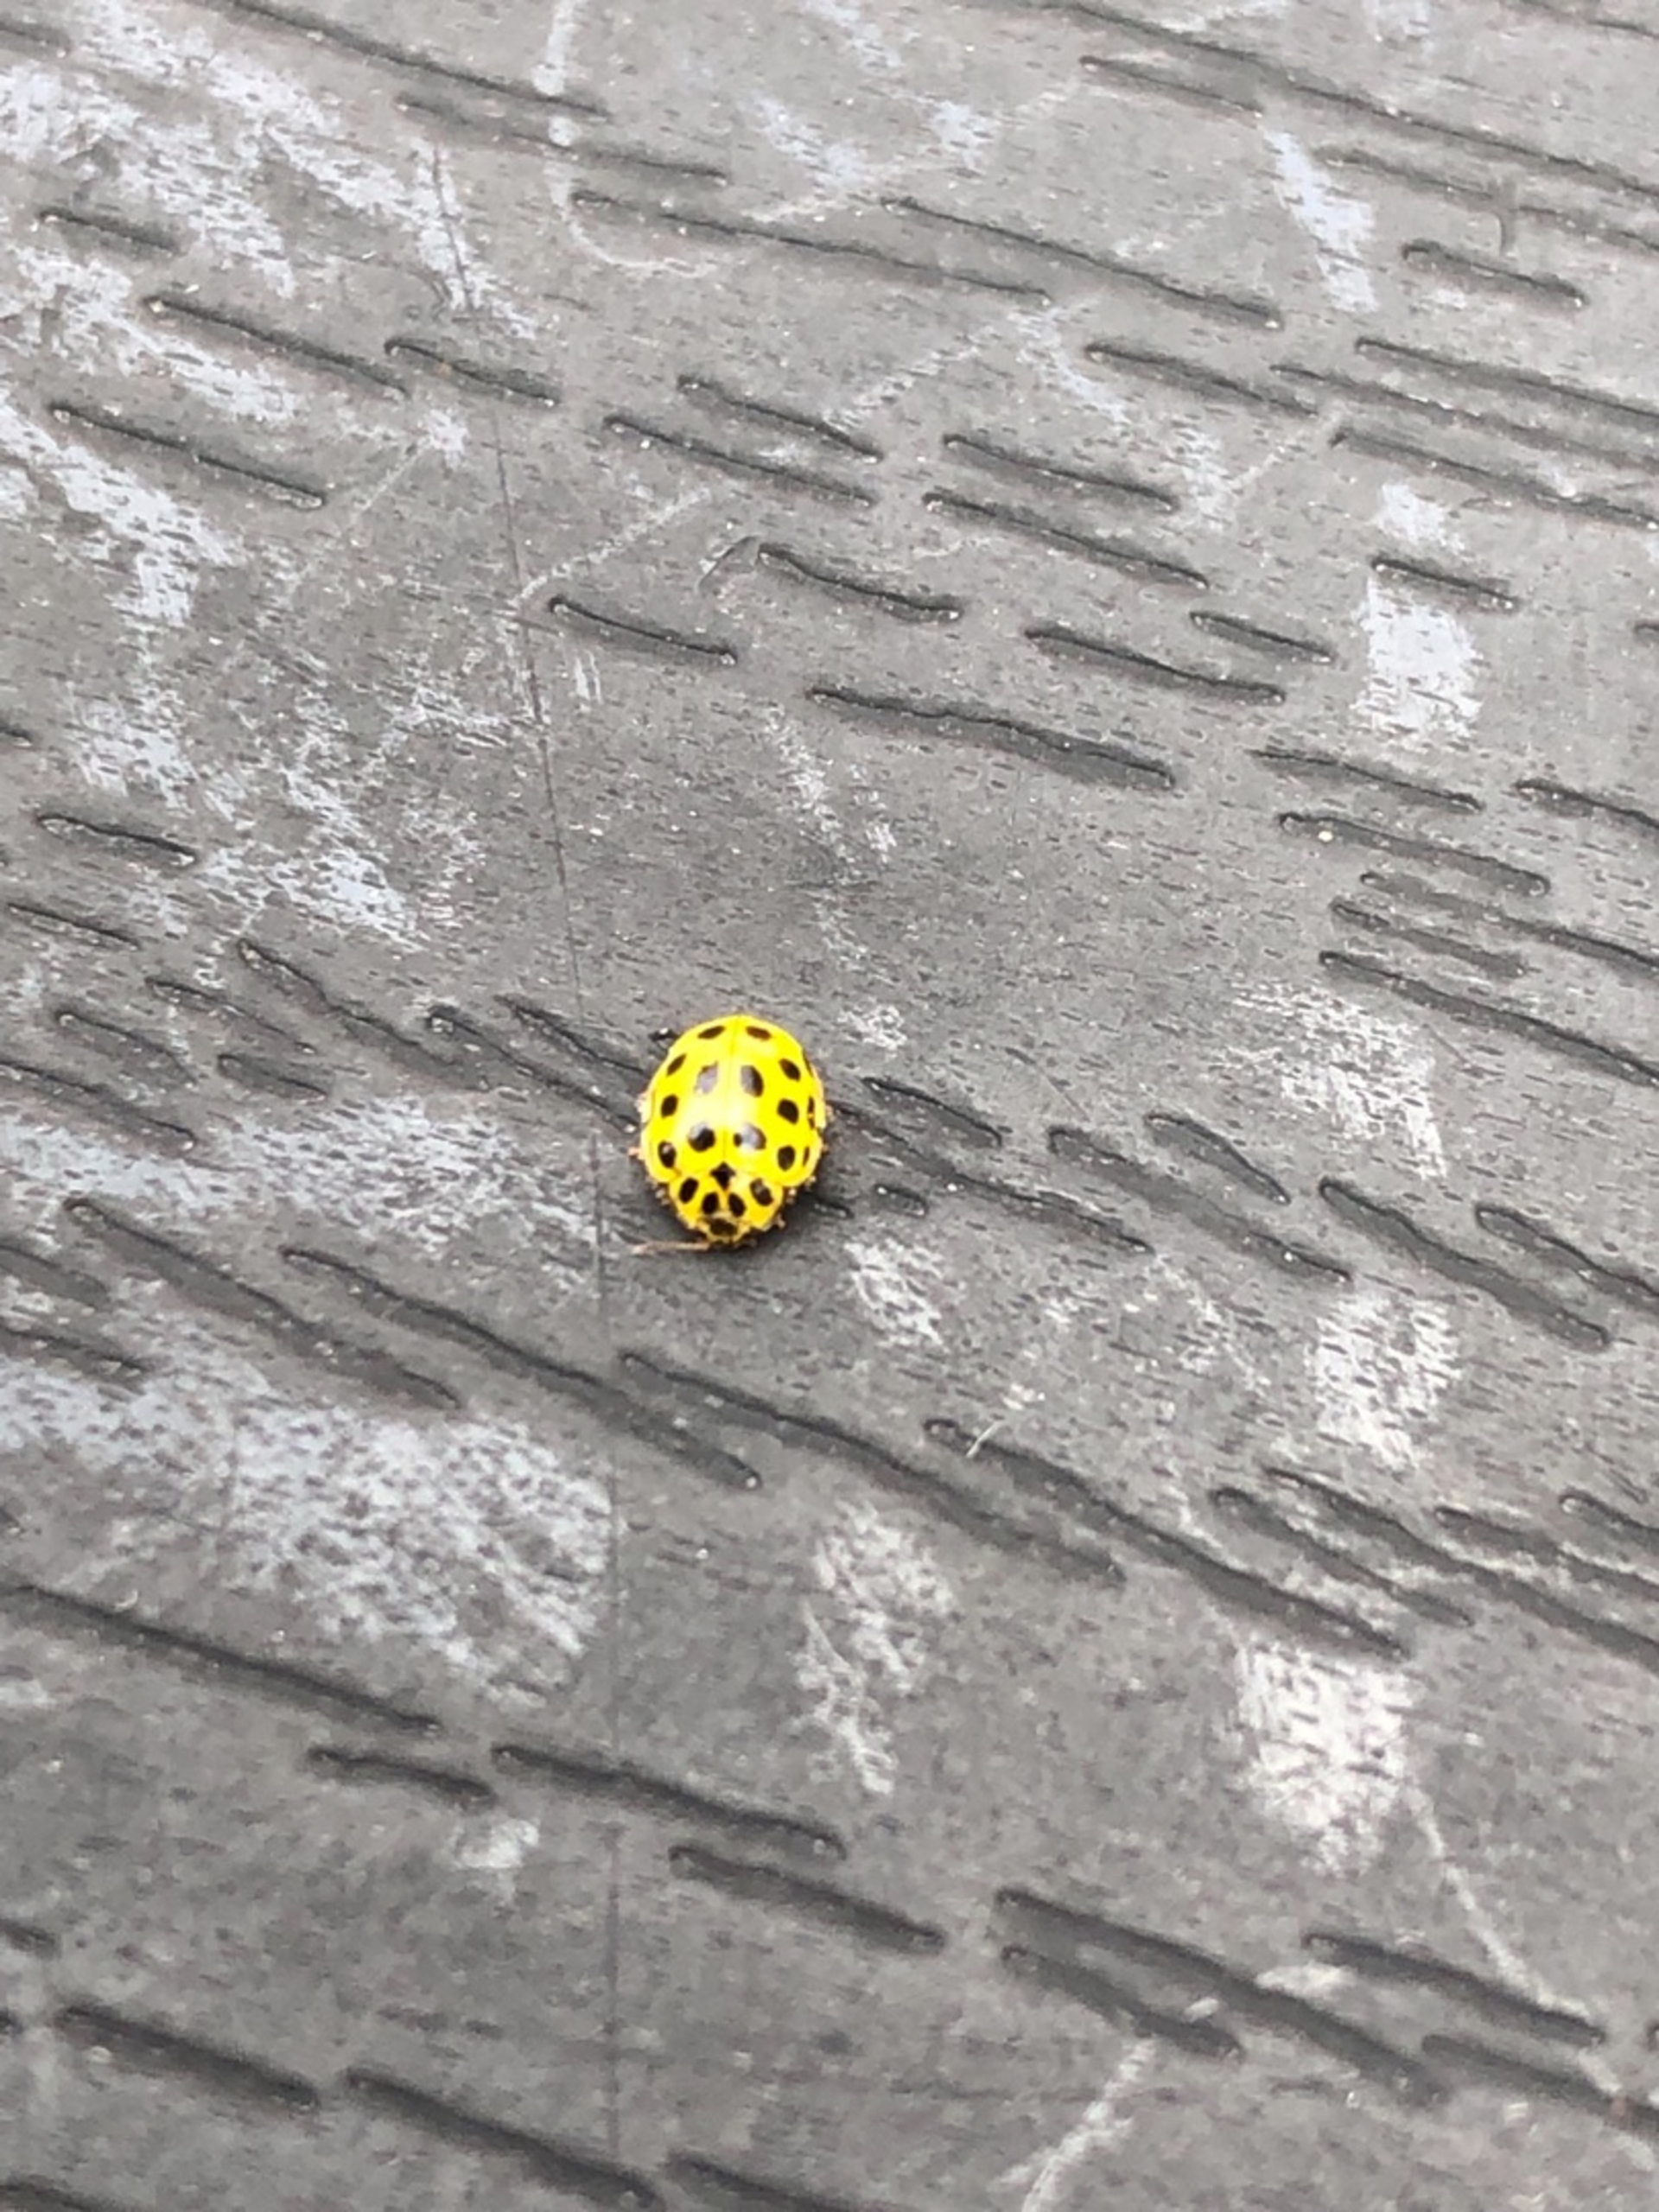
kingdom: Animalia
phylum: Arthropoda
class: Insecta
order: Coleoptera
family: Coccinellidae
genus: Psyllobora
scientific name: Psyllobora vigintiduopunctata
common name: Toogtyveplettet mariehøne
